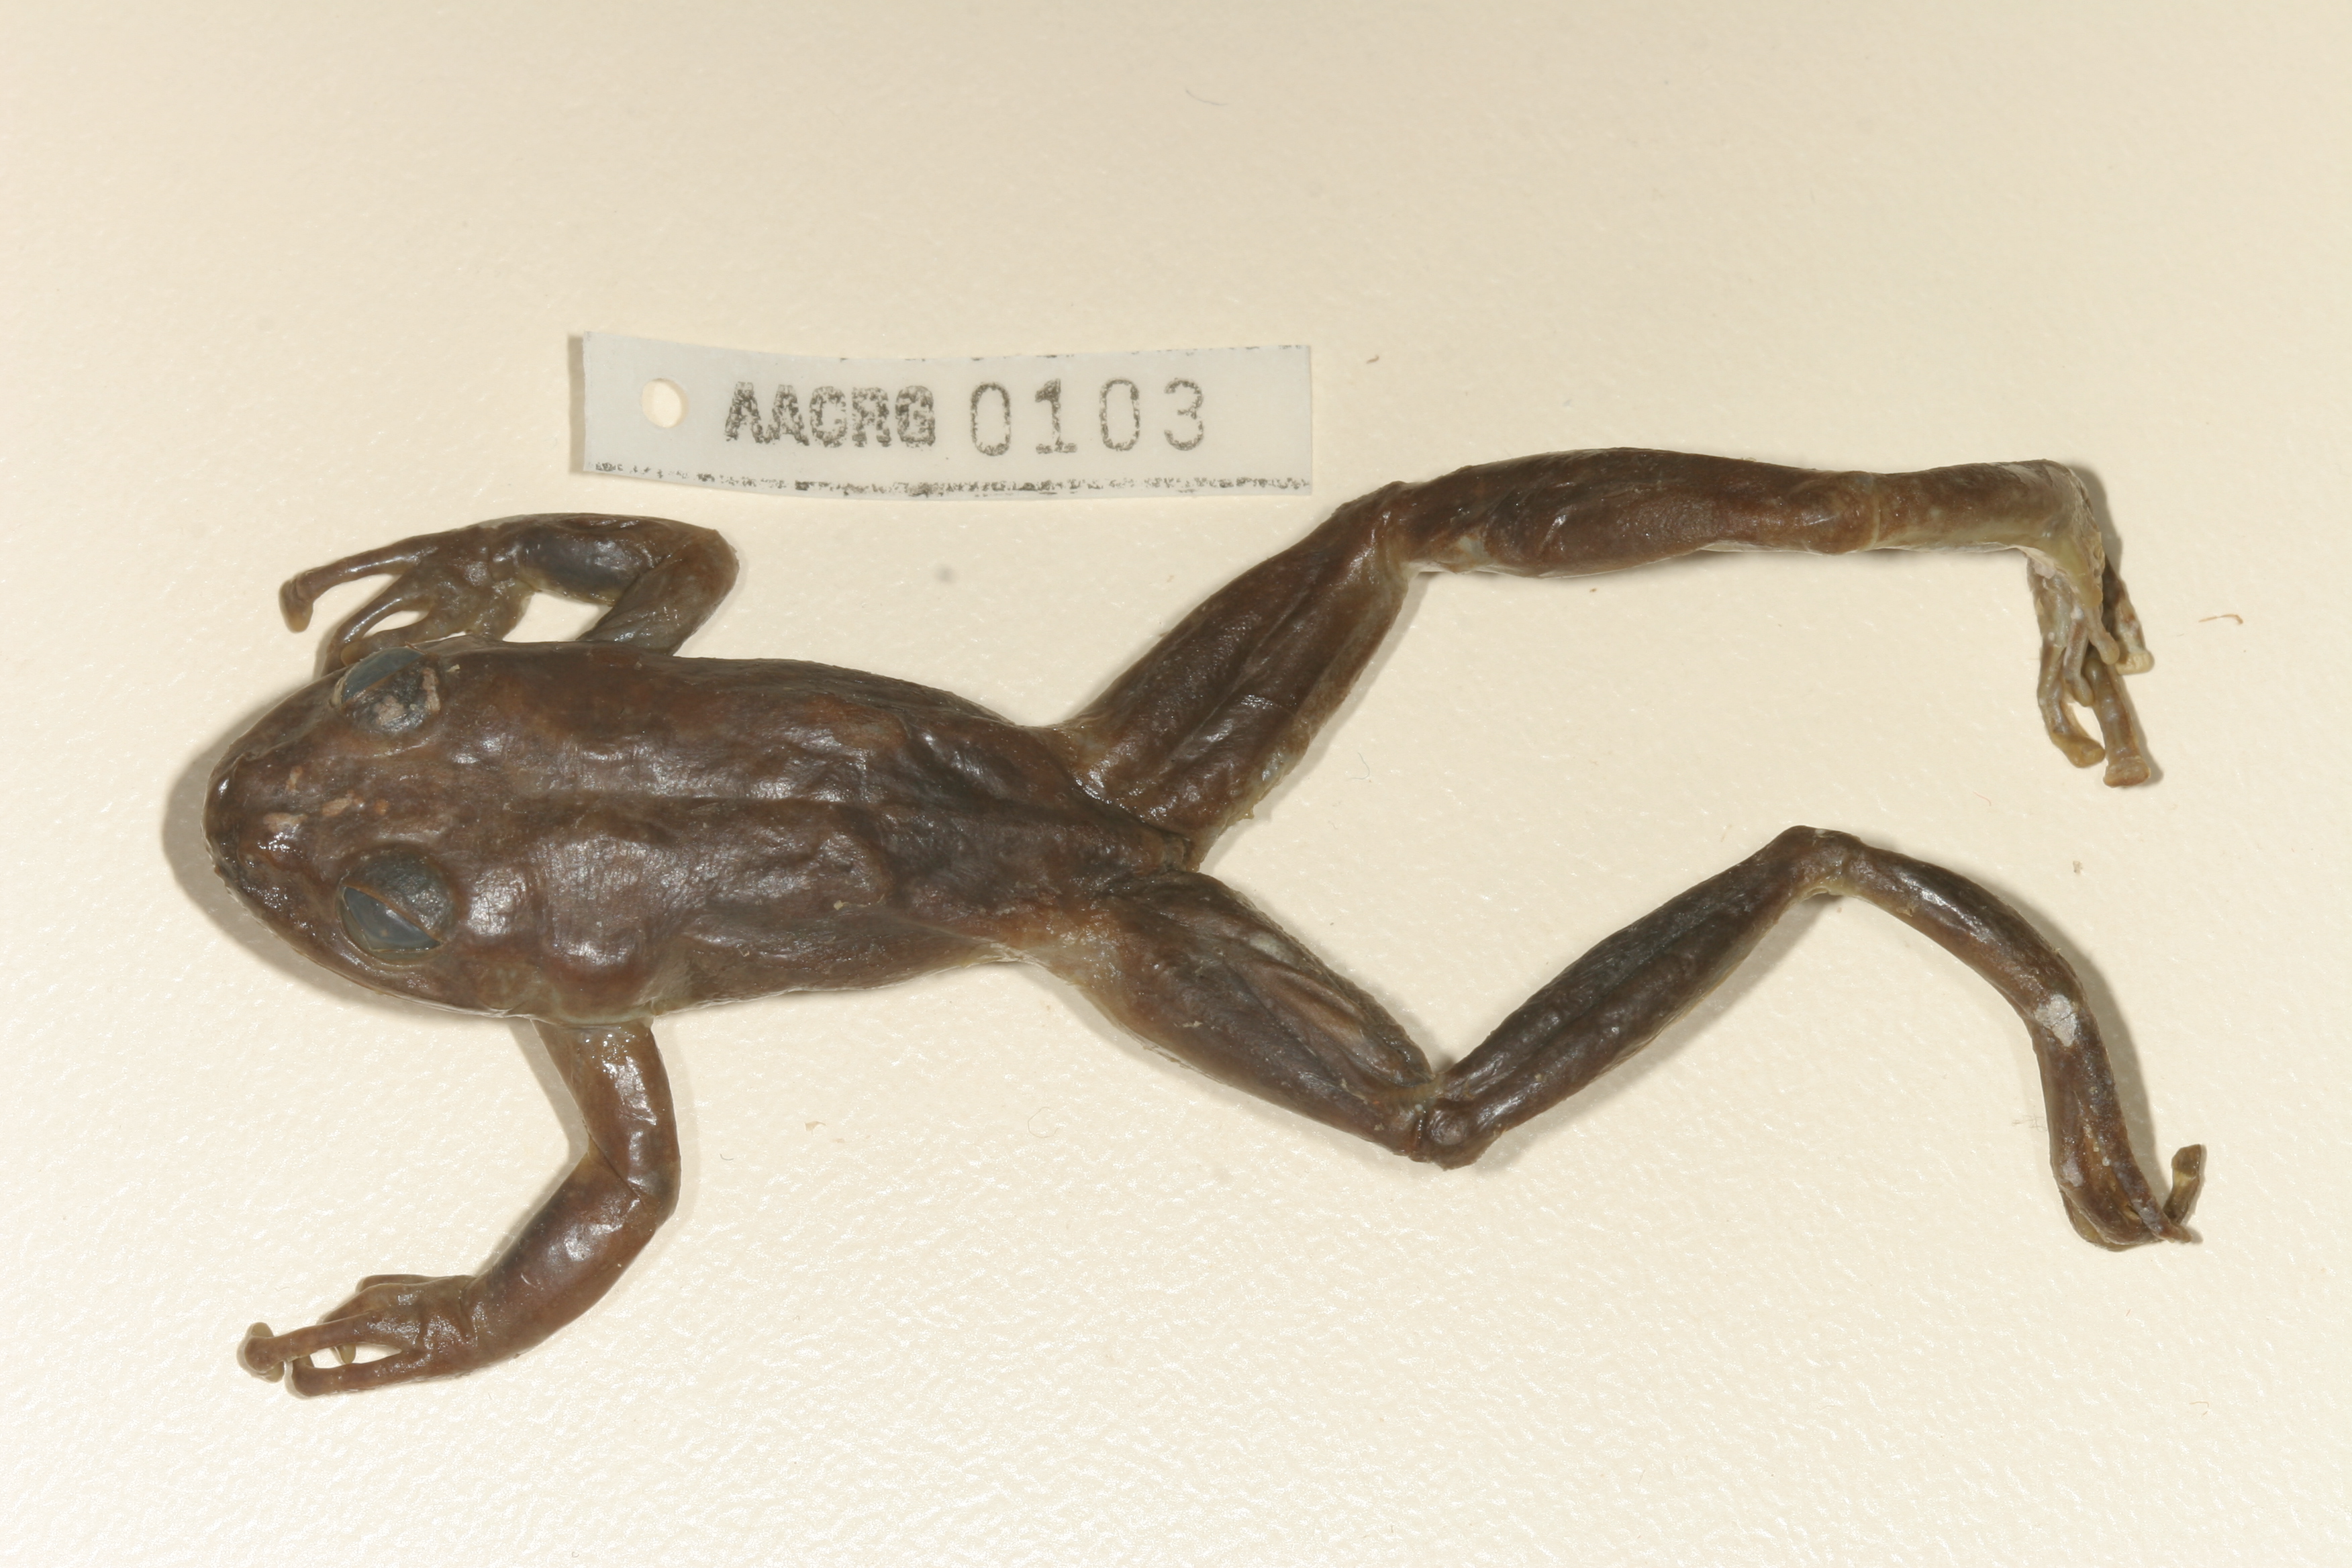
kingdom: Animalia
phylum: Chordata
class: Amphibia
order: Anura
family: Heleophrynidae
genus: Heleophryne
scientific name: Heleophryne purcelli
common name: Purcell's ghost frog
